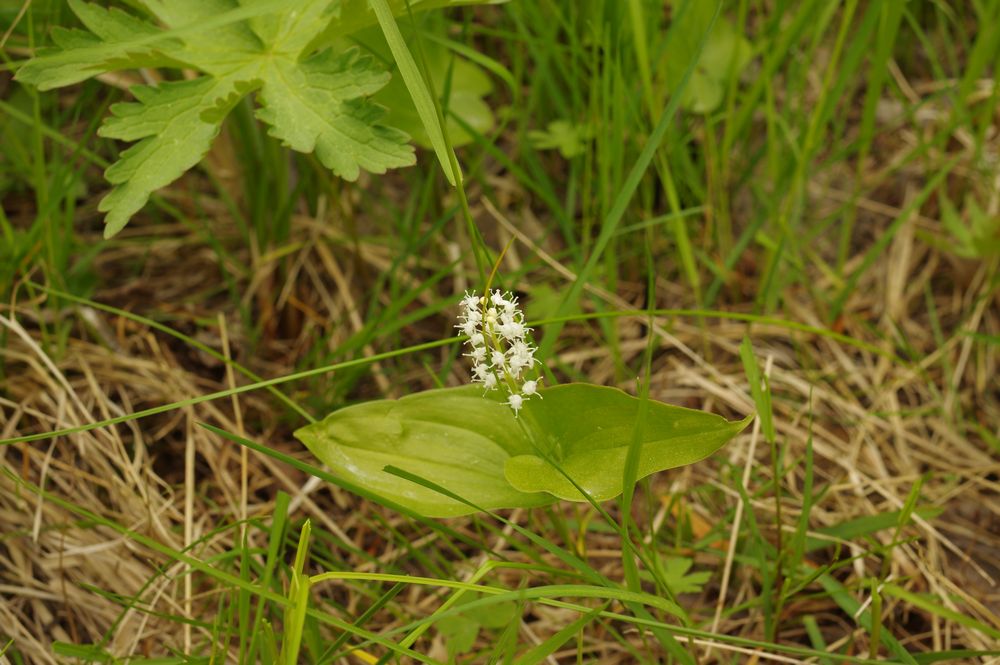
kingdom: Plantae
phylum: Tracheophyta
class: Liliopsida
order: Liliales
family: Liliaceae
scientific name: Liliaceae
